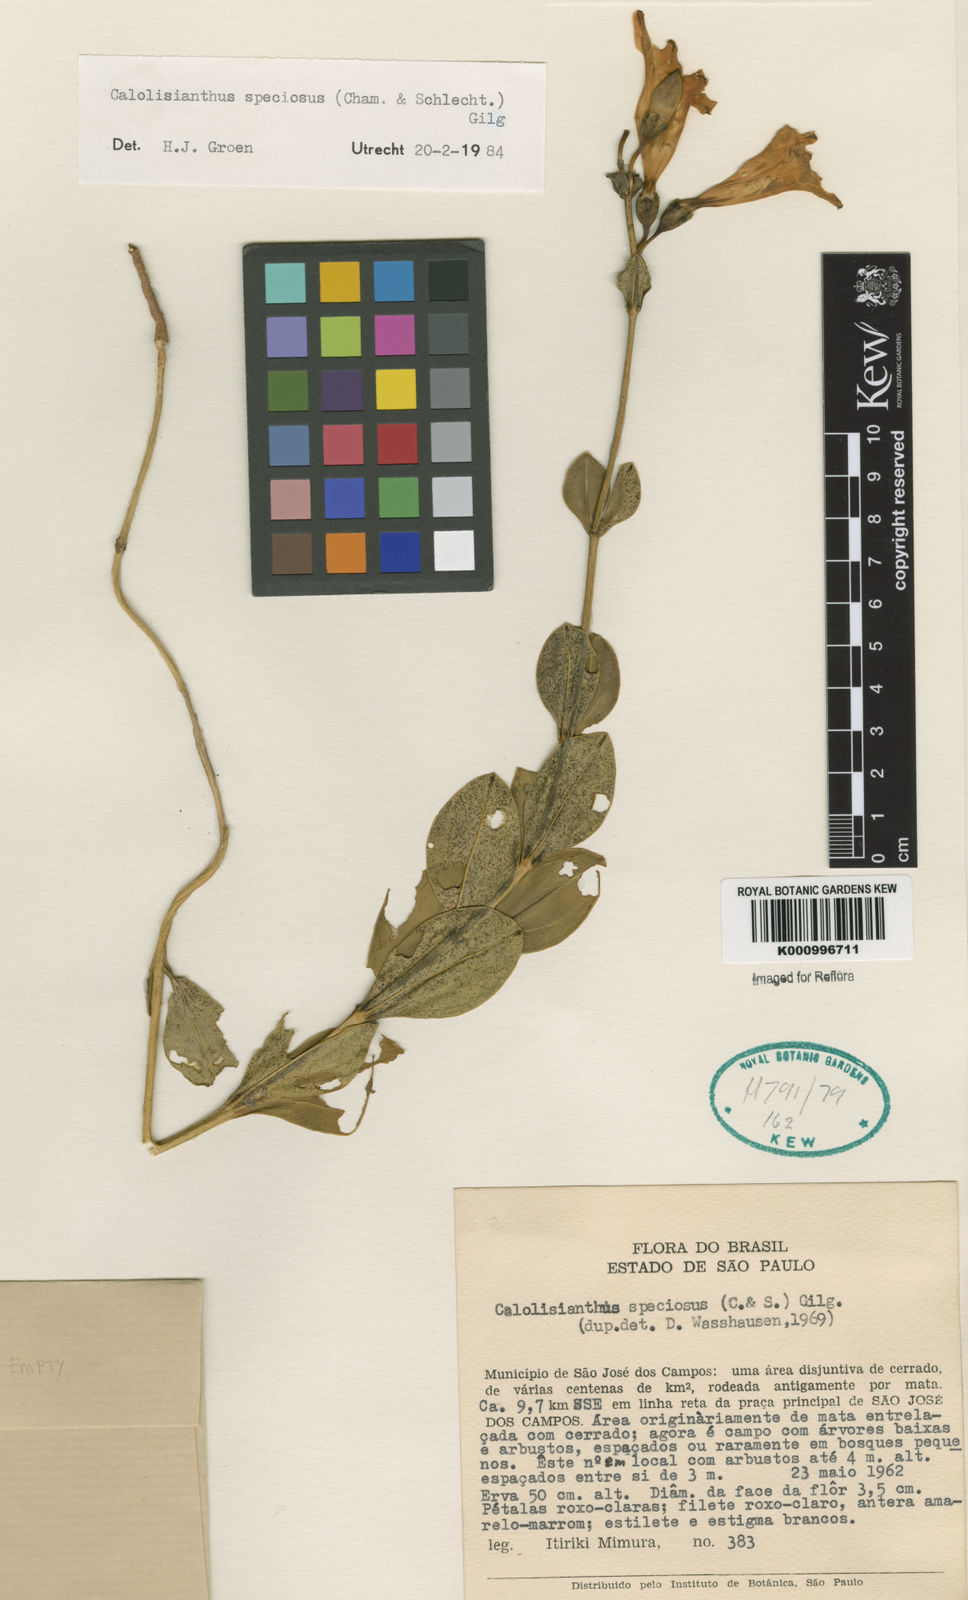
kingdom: Plantae
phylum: Tracheophyta
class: Magnoliopsida
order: Gentianales
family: Gentianaceae
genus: Calolisianthus
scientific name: Calolisianthus speciosus
